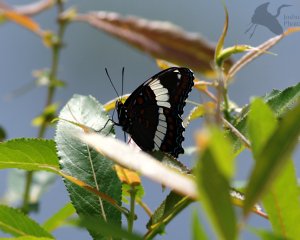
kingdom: Animalia
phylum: Arthropoda
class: Insecta
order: Lepidoptera
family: Nymphalidae
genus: Limenitis
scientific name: Limenitis arthemis
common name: Red-spotted Admiral
